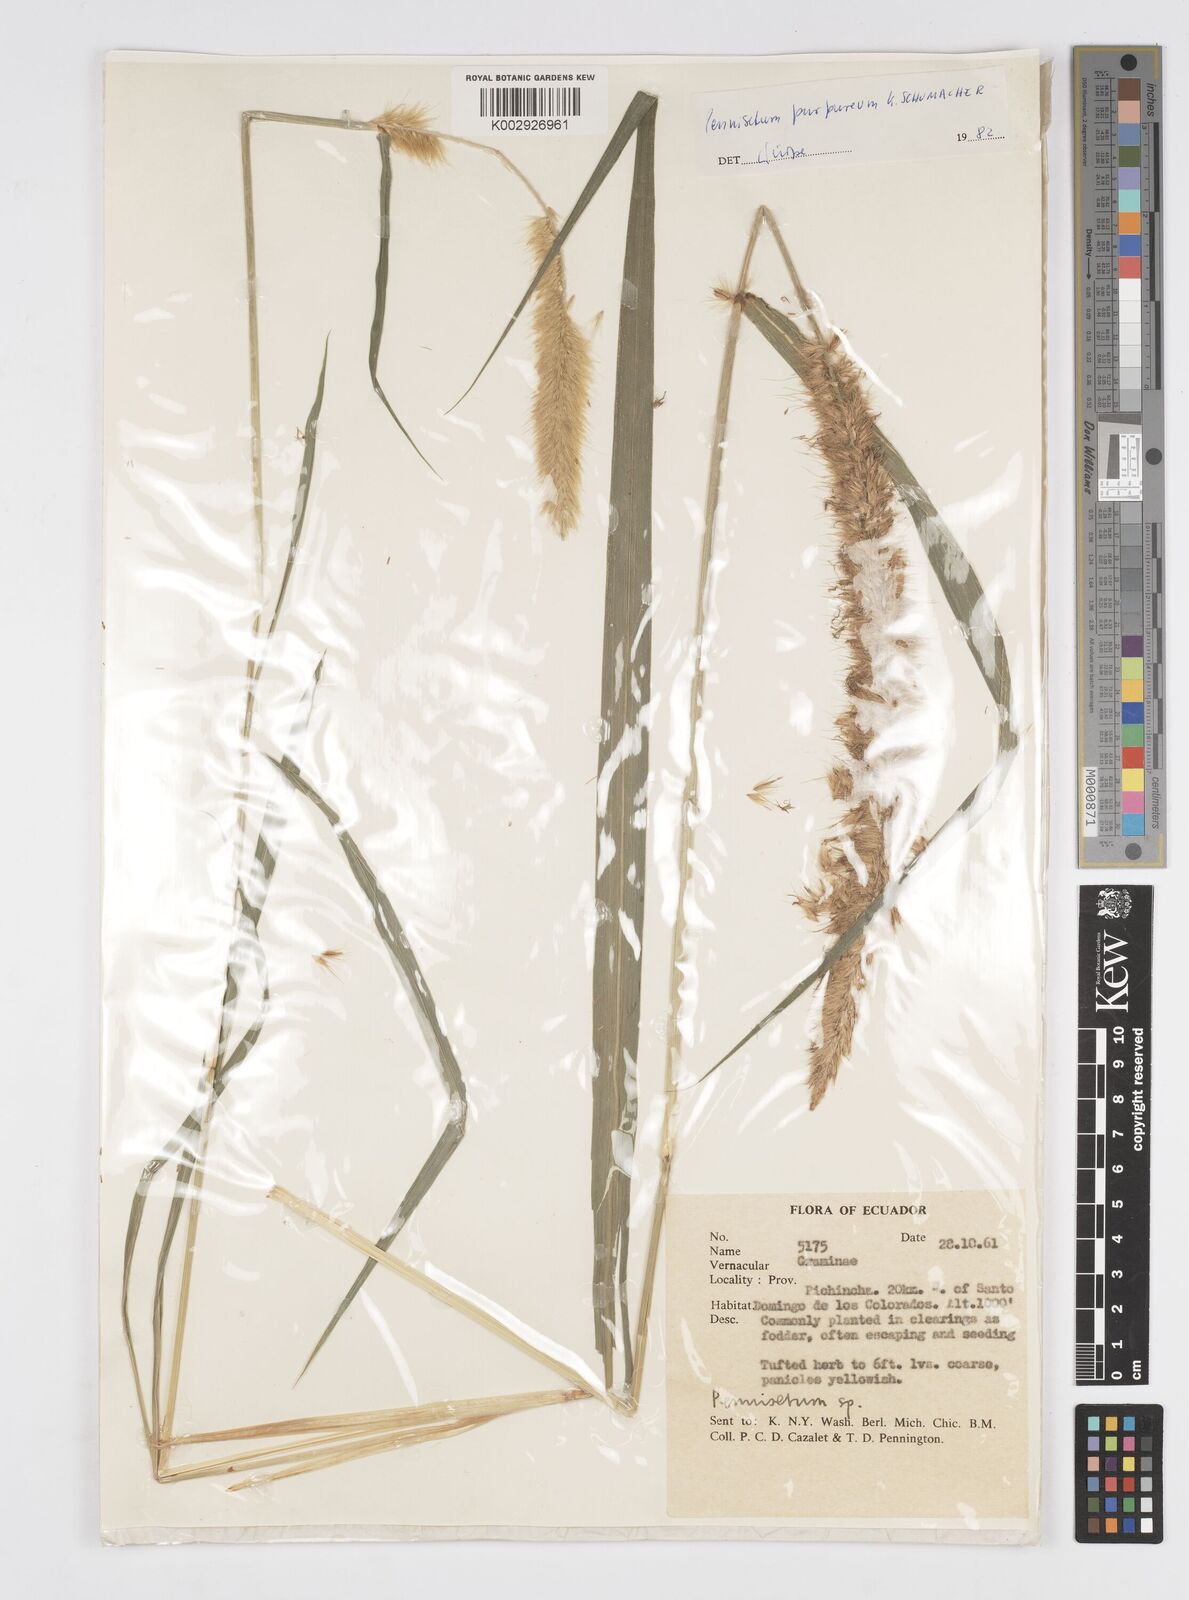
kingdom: Plantae
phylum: Tracheophyta
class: Liliopsida
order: Poales
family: Poaceae
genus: Cenchrus
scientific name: Cenchrus purpureus
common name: Elephant grass
